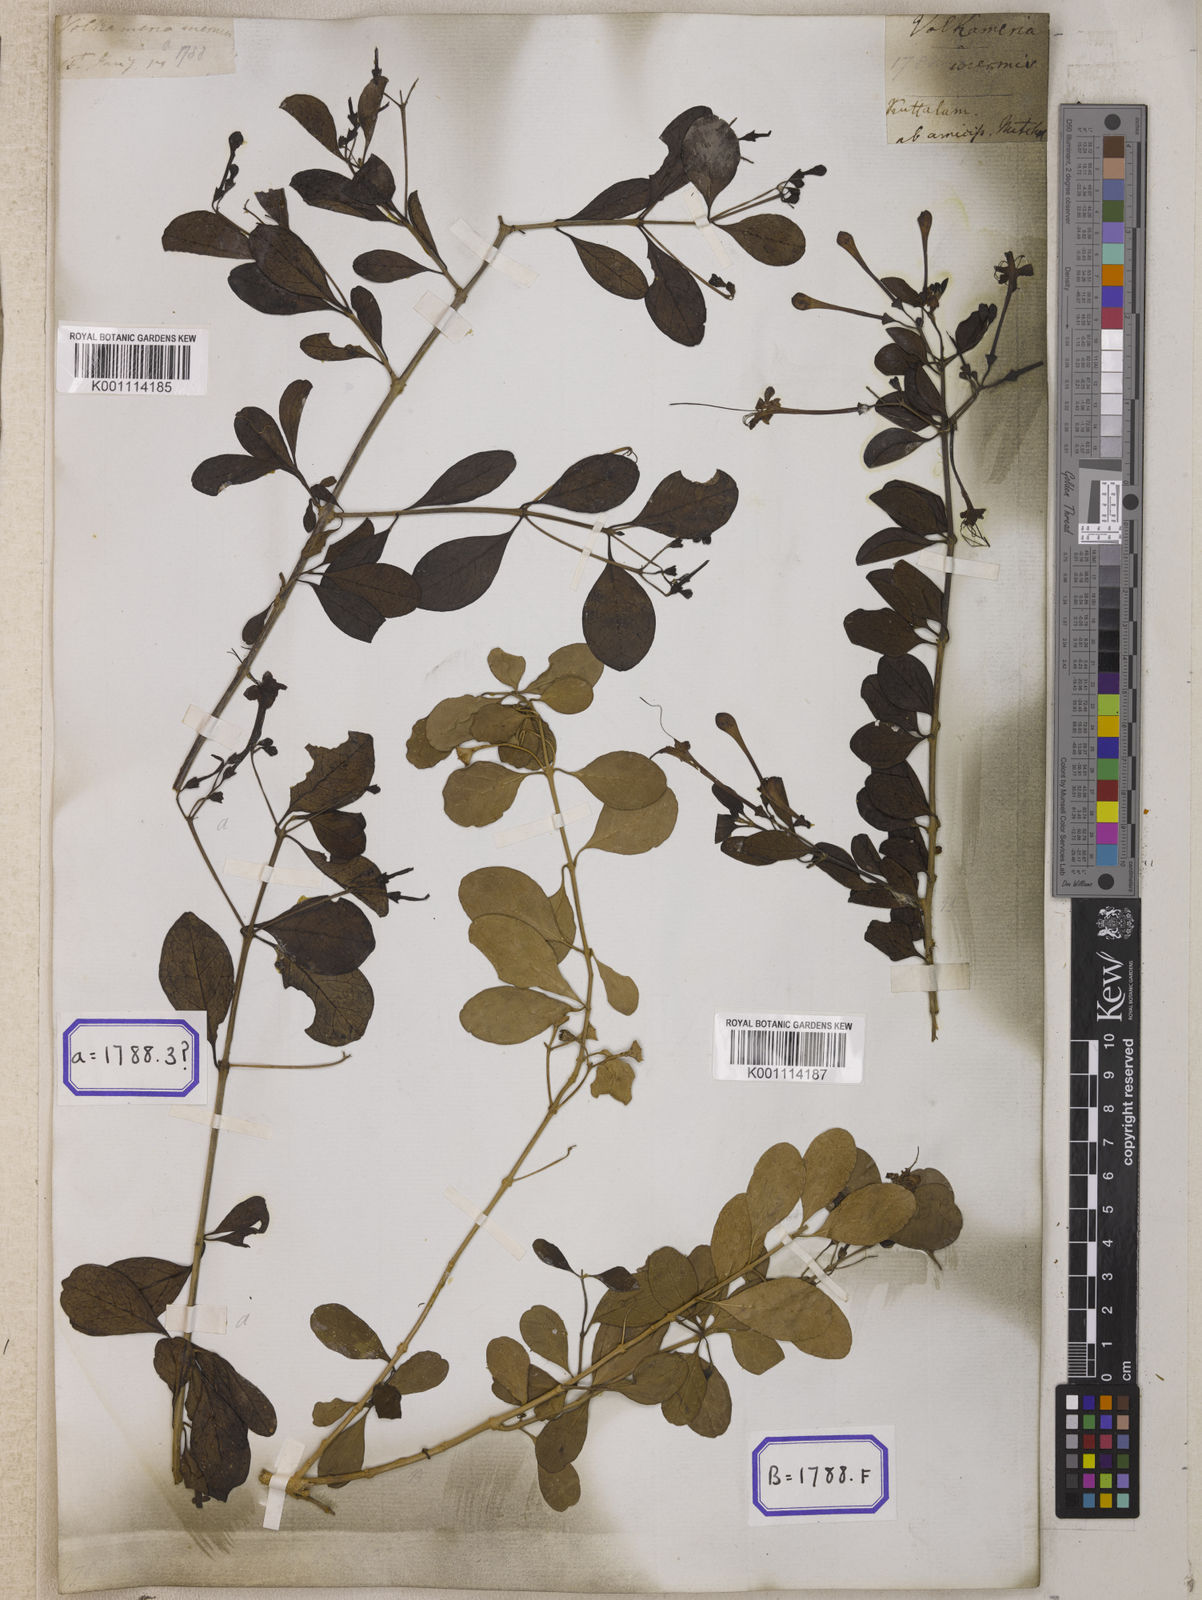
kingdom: Plantae
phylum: Tracheophyta
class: Magnoliopsida
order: Lamiales
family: Lamiaceae
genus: Clerodendrum
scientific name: Clerodendrum
